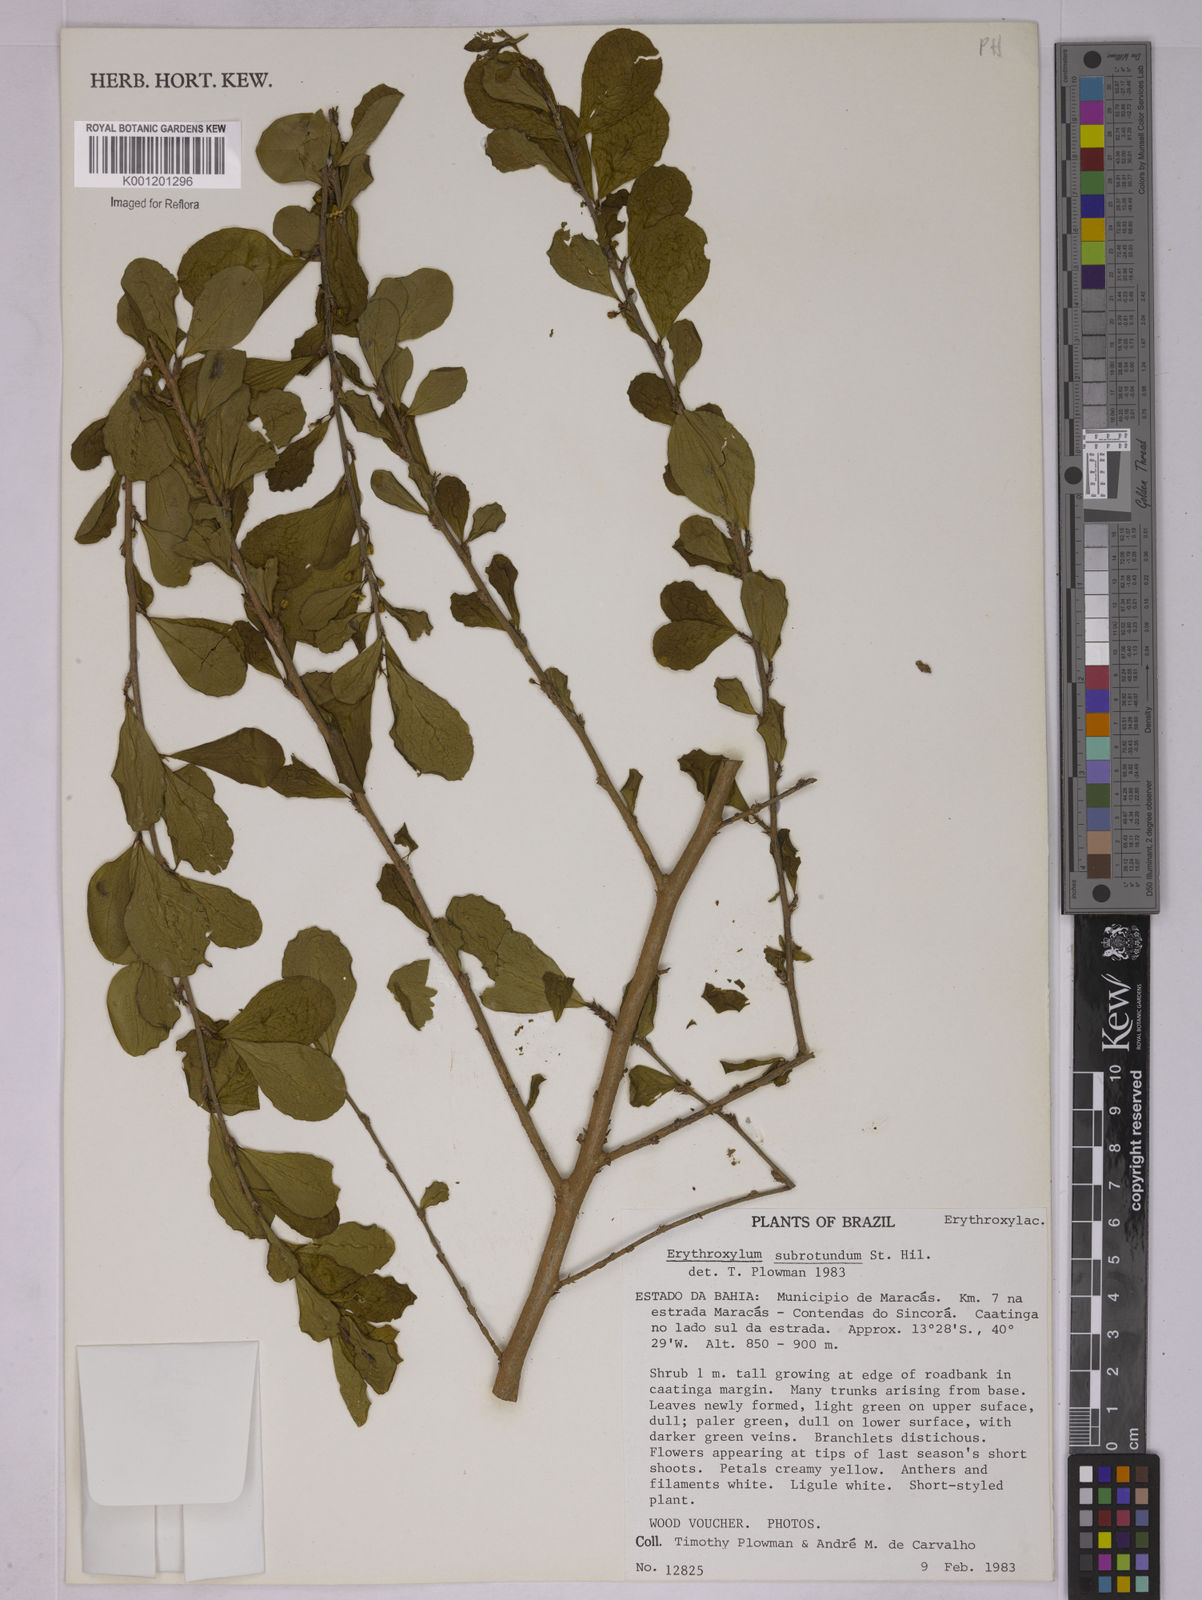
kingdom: Plantae
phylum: Tracheophyta
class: Magnoliopsida
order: Malpighiales
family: Erythroxylaceae
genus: Erythroxylum
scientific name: Erythroxylum subrotundum
